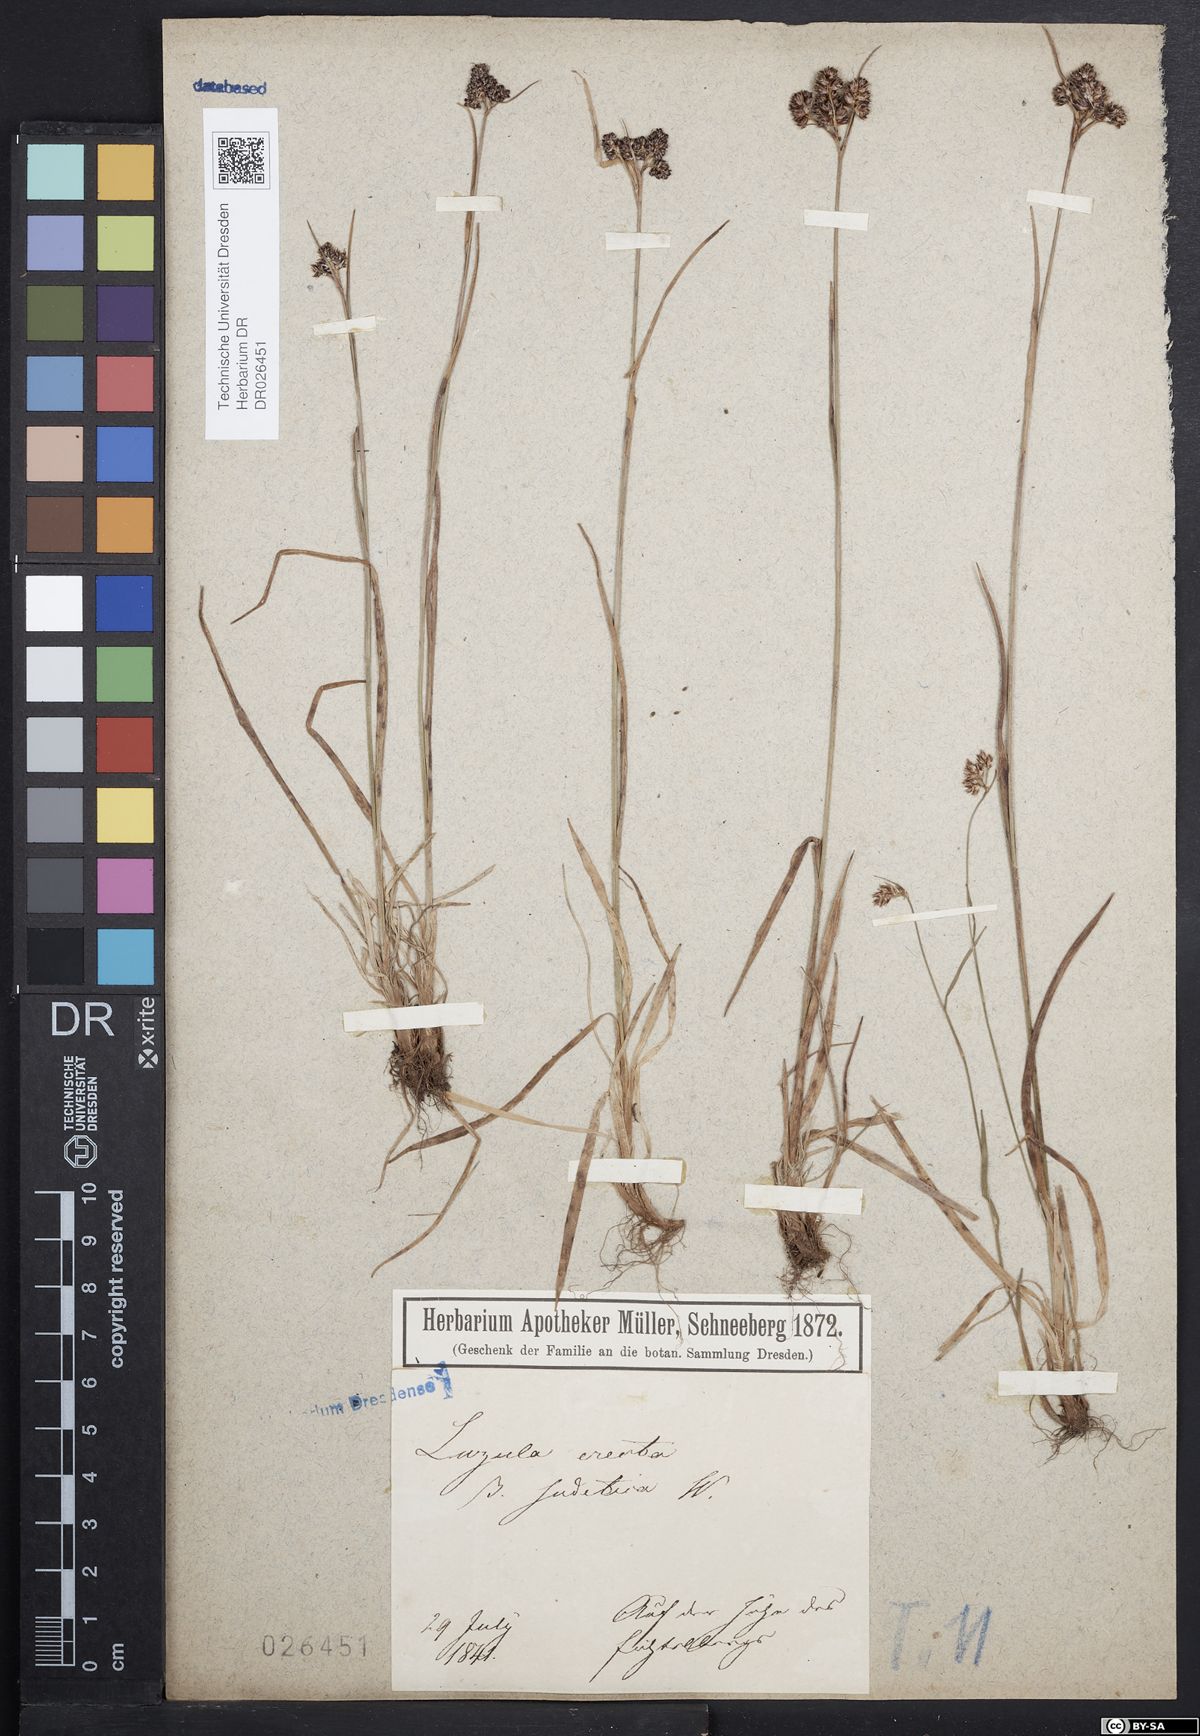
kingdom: Plantae
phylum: Tracheophyta
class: Liliopsida
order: Poales
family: Juncaceae
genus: Luzula
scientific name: Luzula sudetica
